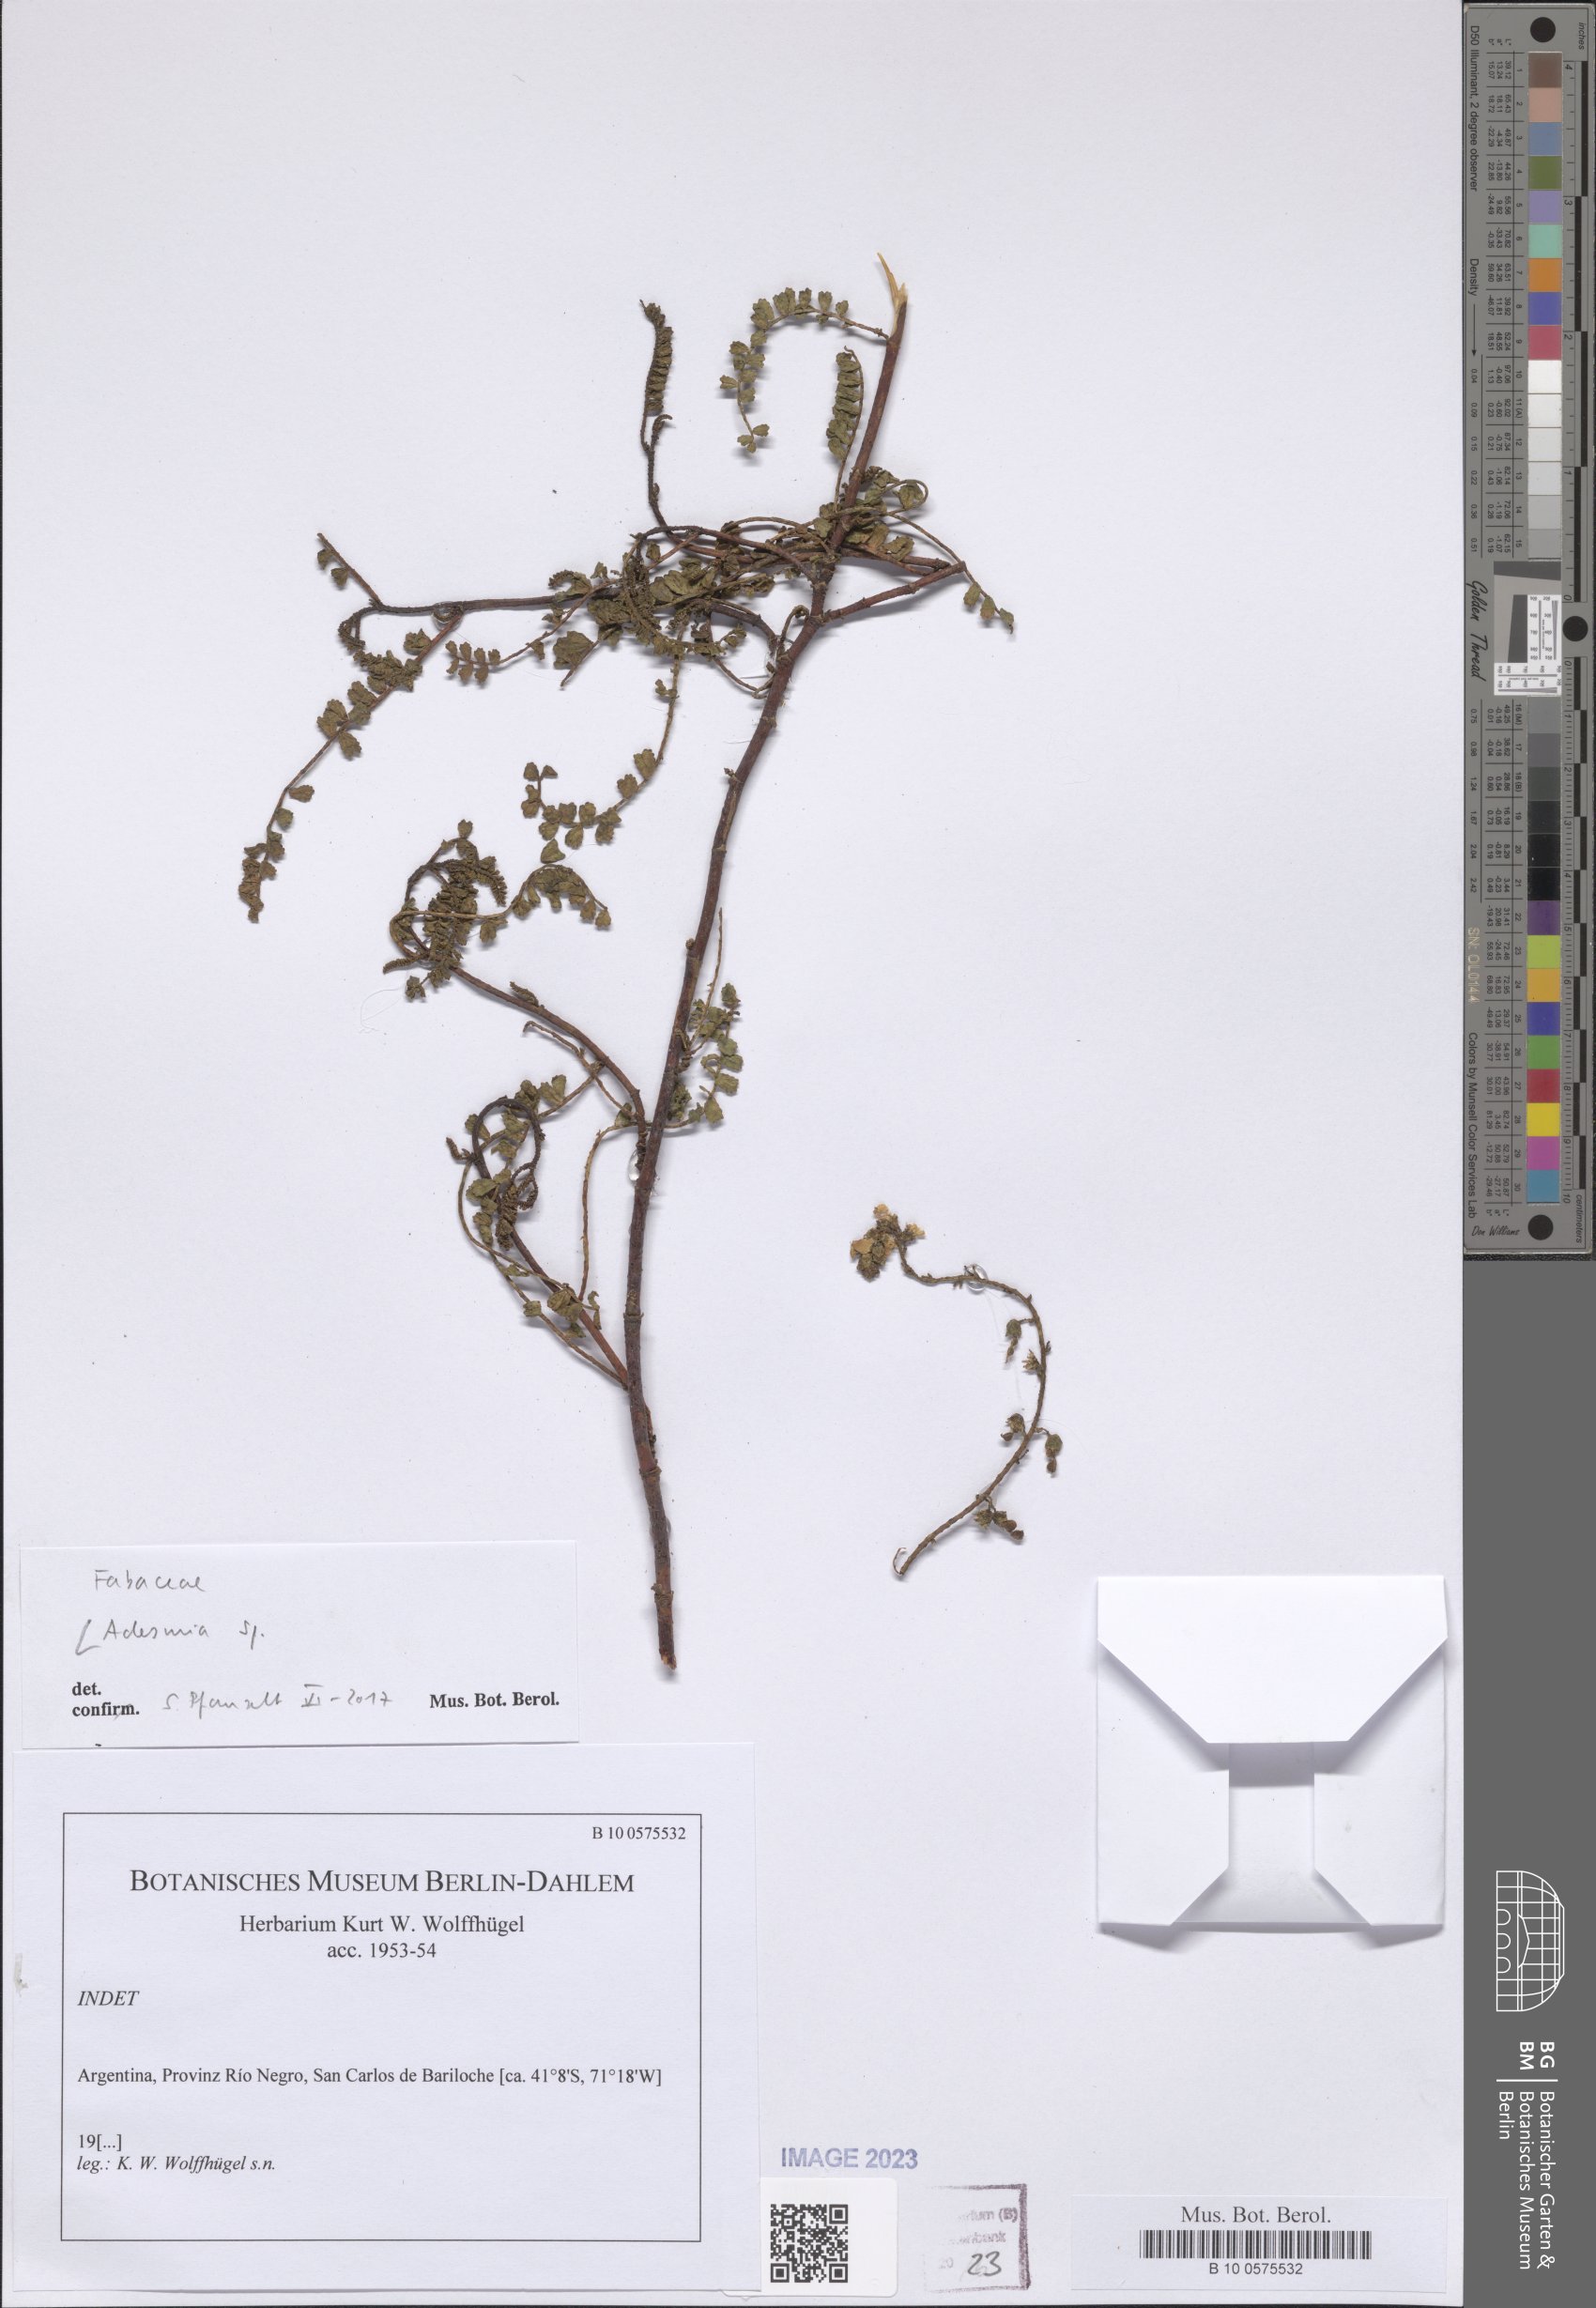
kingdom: Plantae
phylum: Tracheophyta
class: Magnoliopsida
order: Fabales
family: Fabaceae
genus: Adesmia
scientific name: Adesmia
